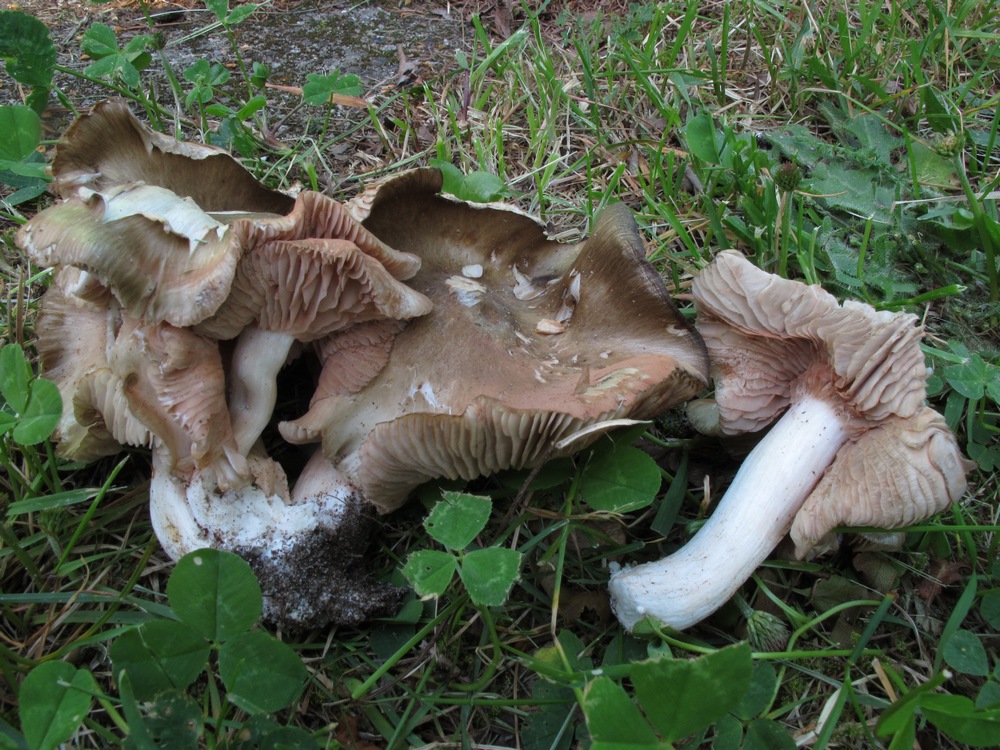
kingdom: Fungi
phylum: Basidiomycota
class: Agaricomycetes
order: Agaricales
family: Entolomataceae
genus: Entoloma
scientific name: Entoloma clypeatum
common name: flammet rødblad
